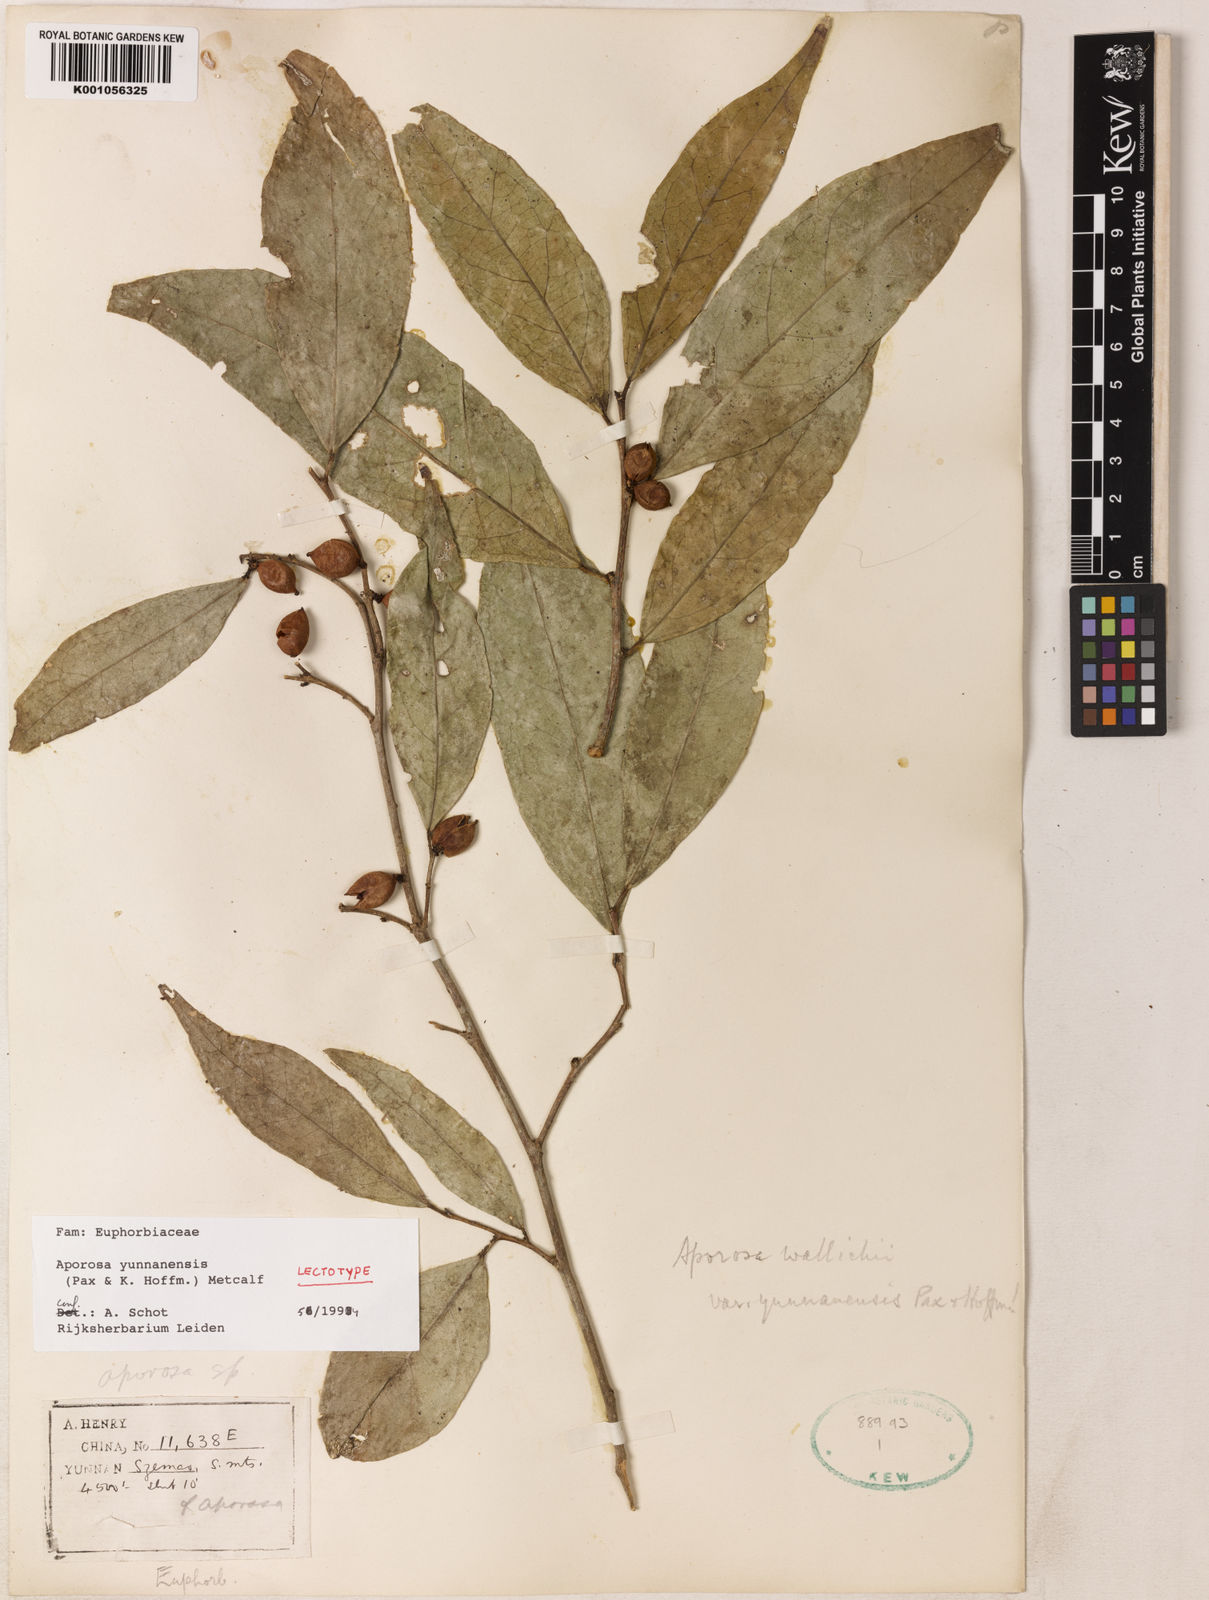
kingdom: Plantae
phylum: Tracheophyta
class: Magnoliopsida
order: Malpighiales
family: Phyllanthaceae
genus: Aporosa
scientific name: Aporosa yunnanensis
